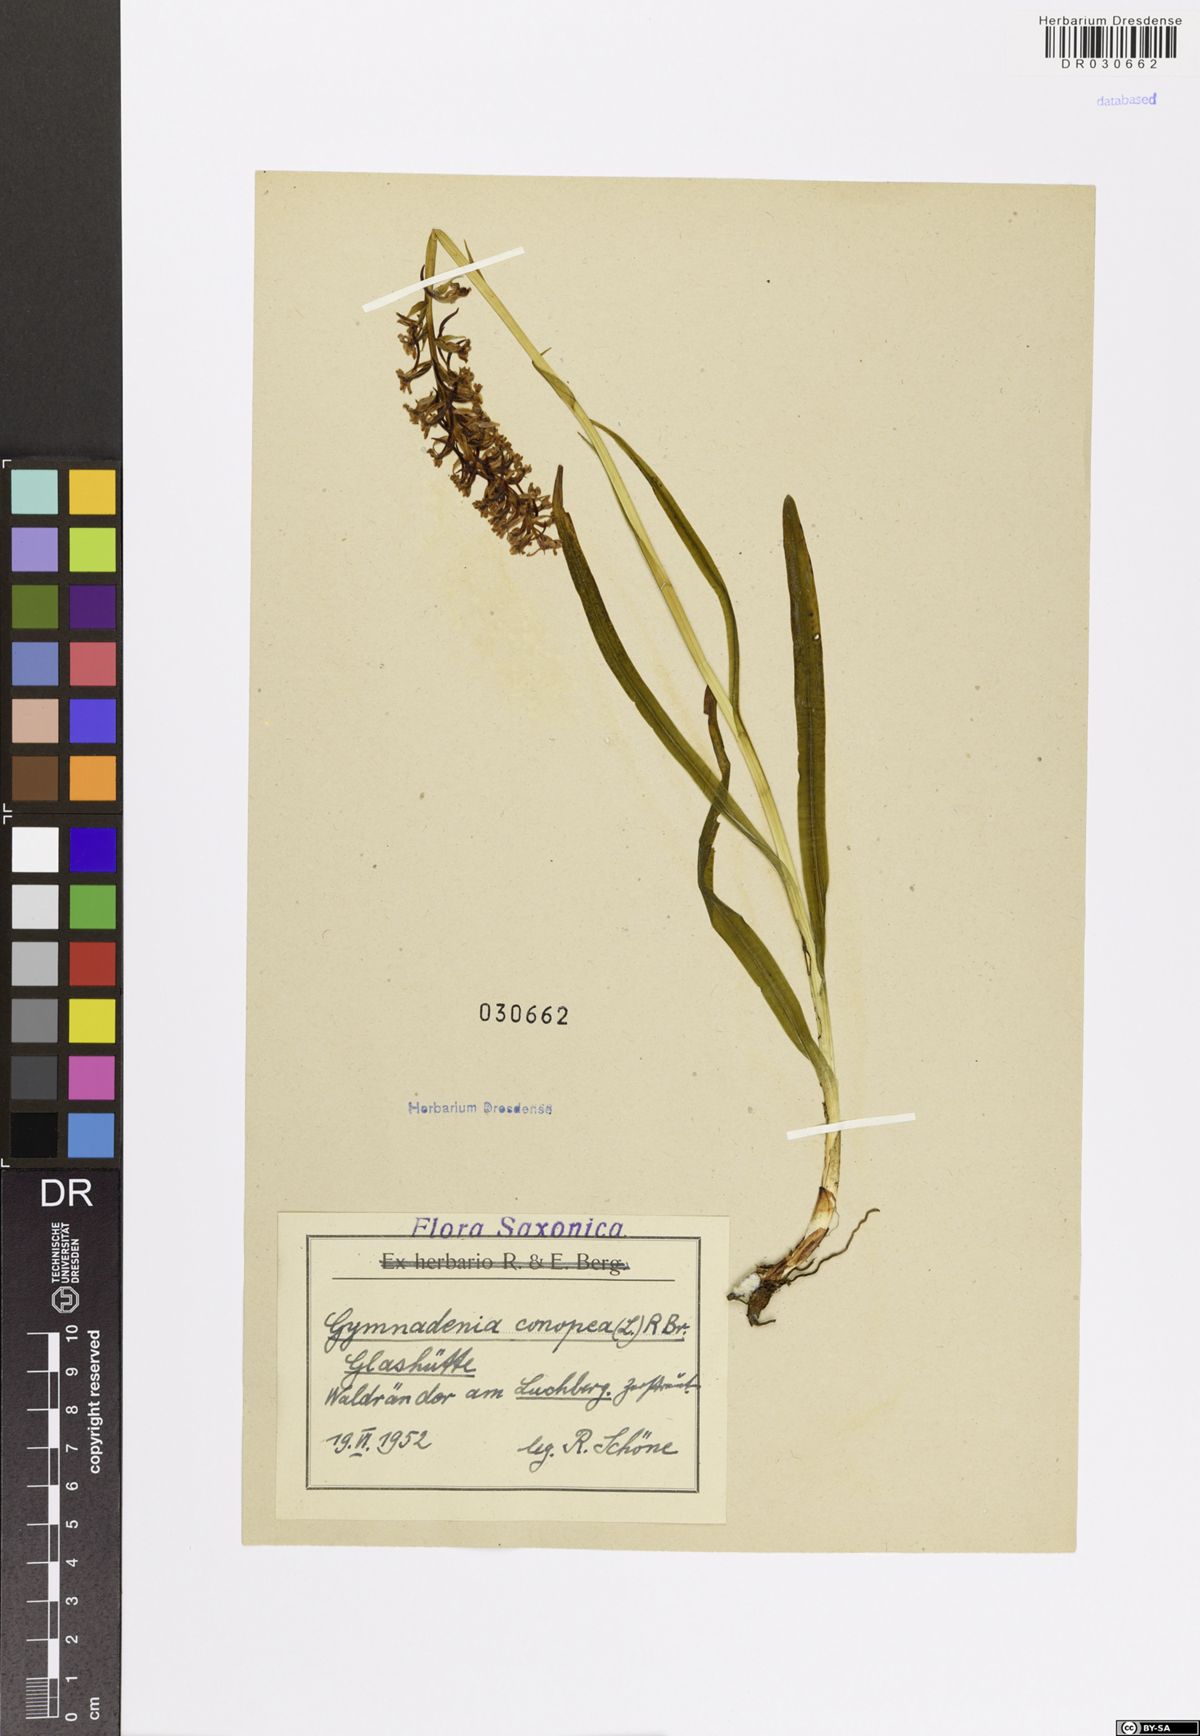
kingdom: Plantae
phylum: Tracheophyta
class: Liliopsida
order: Asparagales
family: Orchidaceae
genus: Gymnadenia
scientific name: Gymnadenia conopsea
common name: Fragrant orchid
